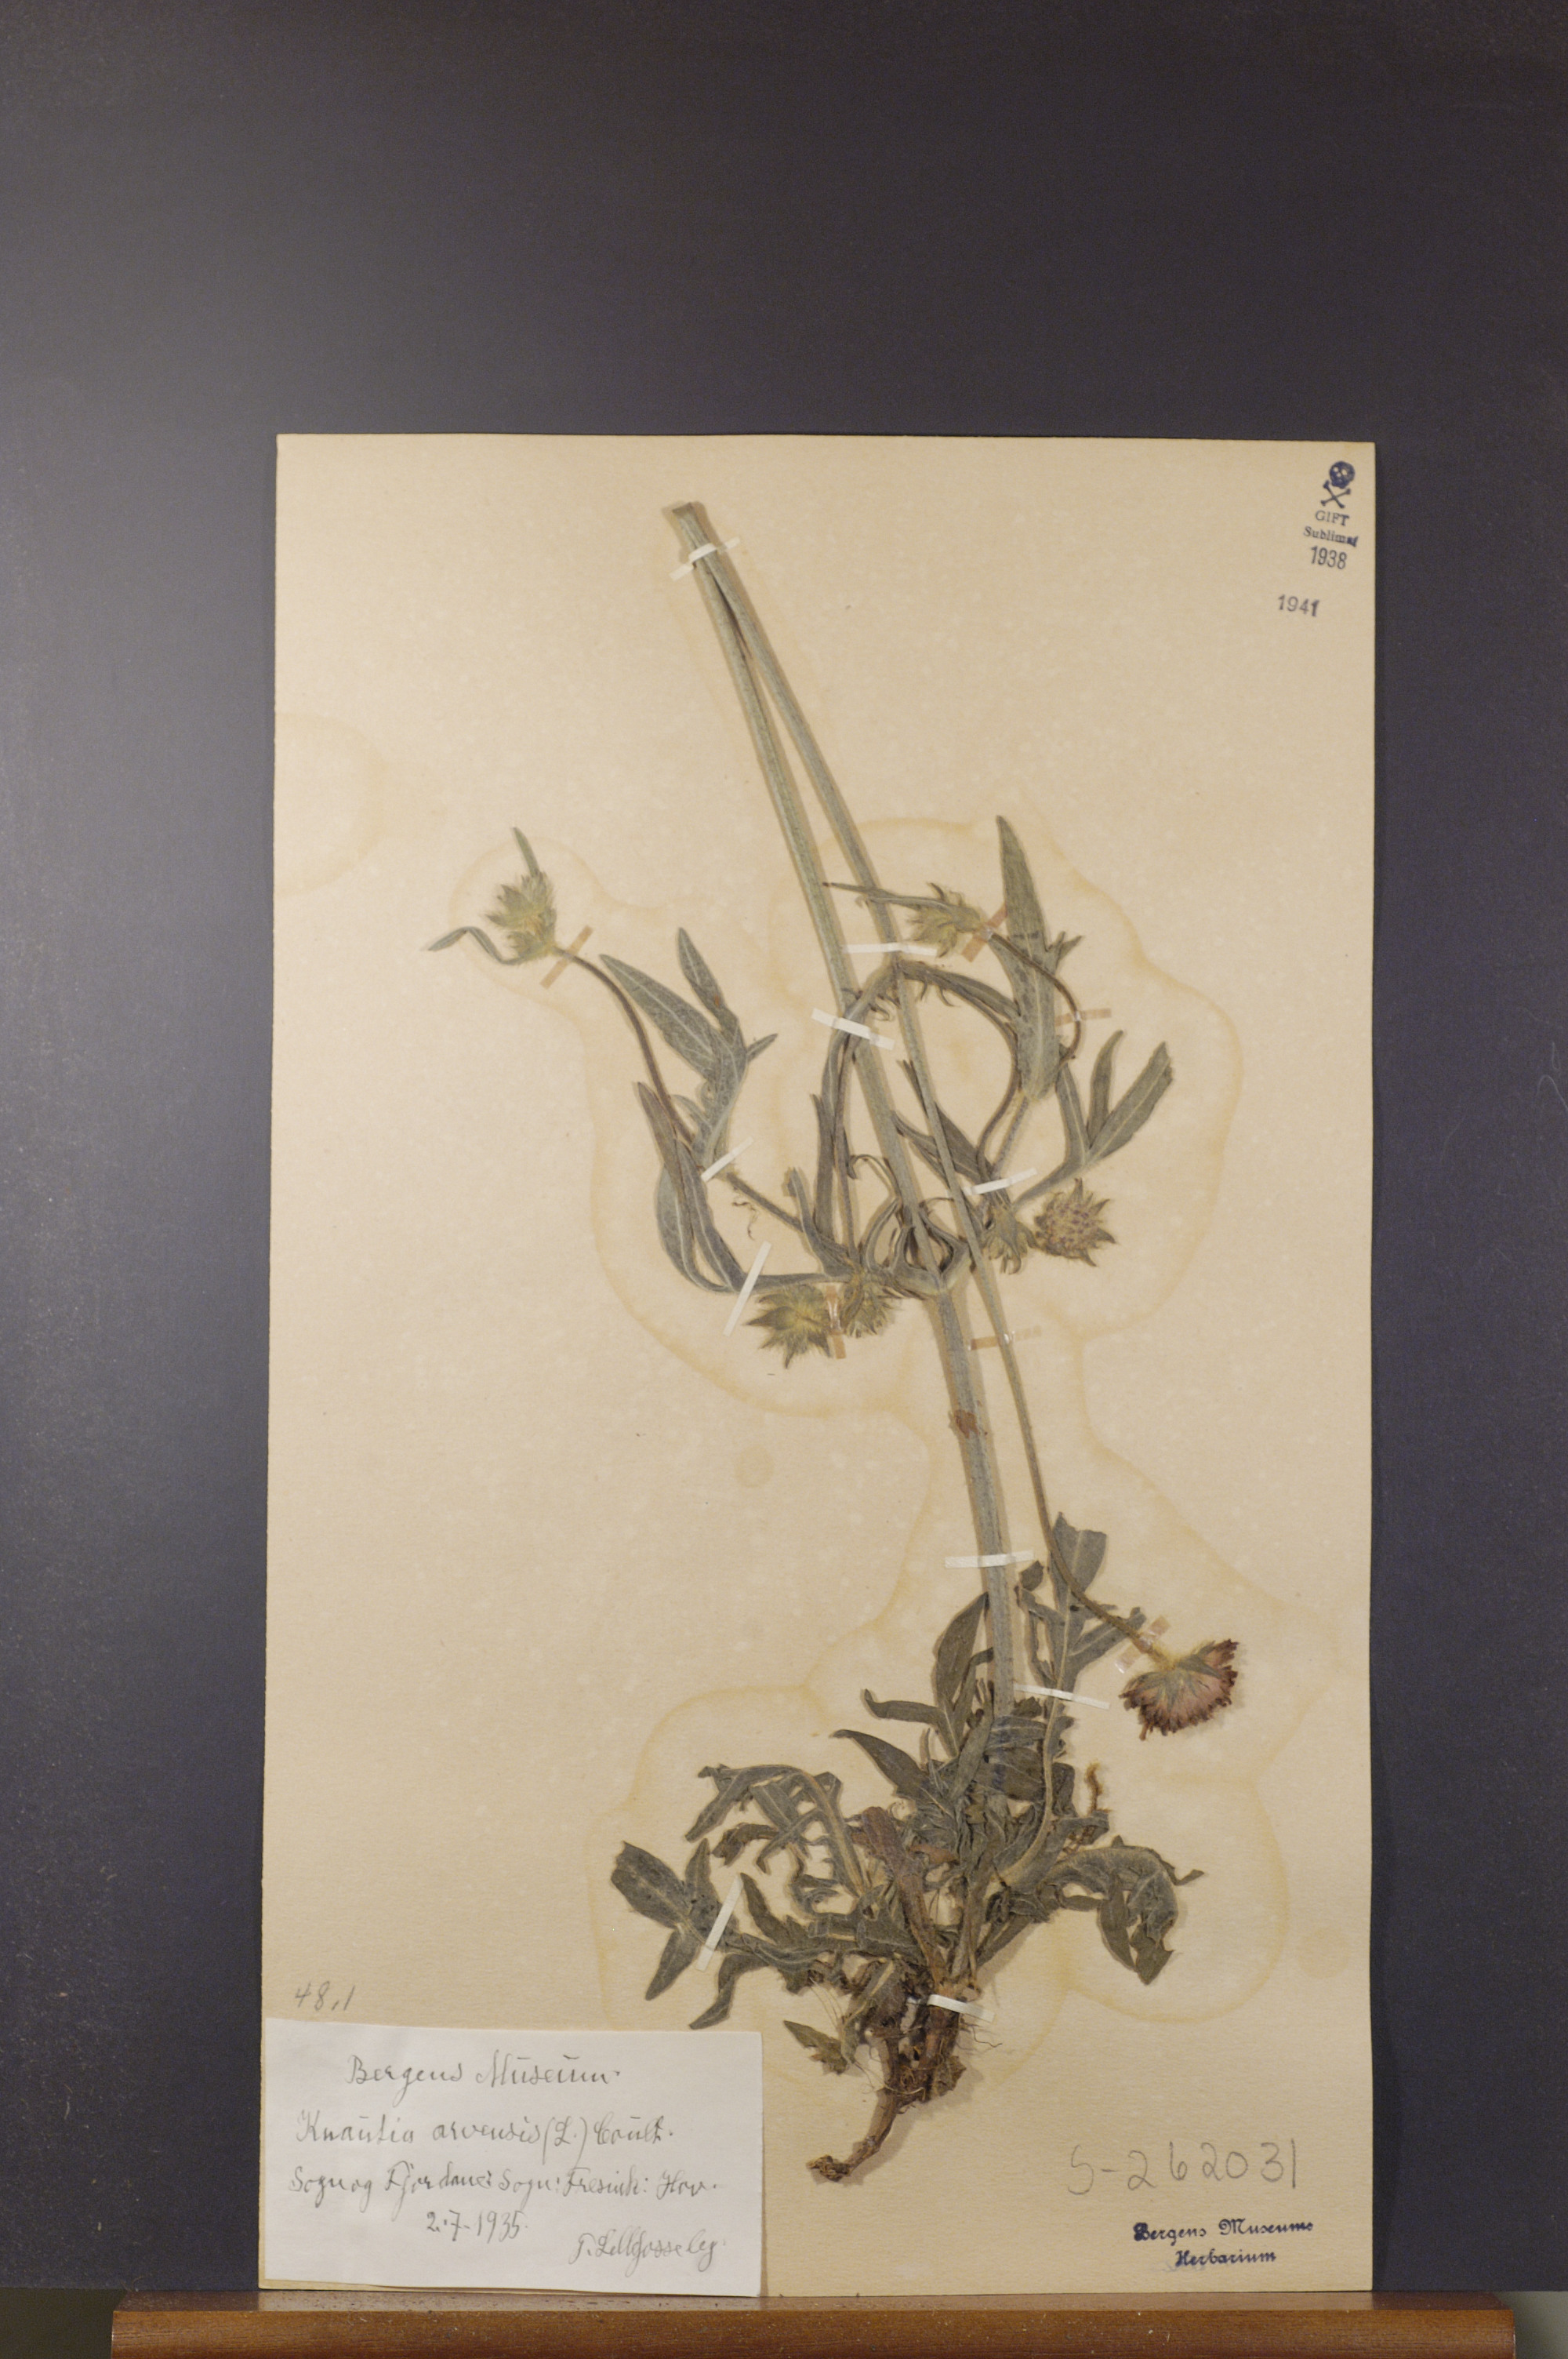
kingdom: Plantae
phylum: Tracheophyta
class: Magnoliopsida
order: Dipsacales
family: Caprifoliaceae
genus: Knautia
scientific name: Knautia arvensis
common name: Field scabiosa
